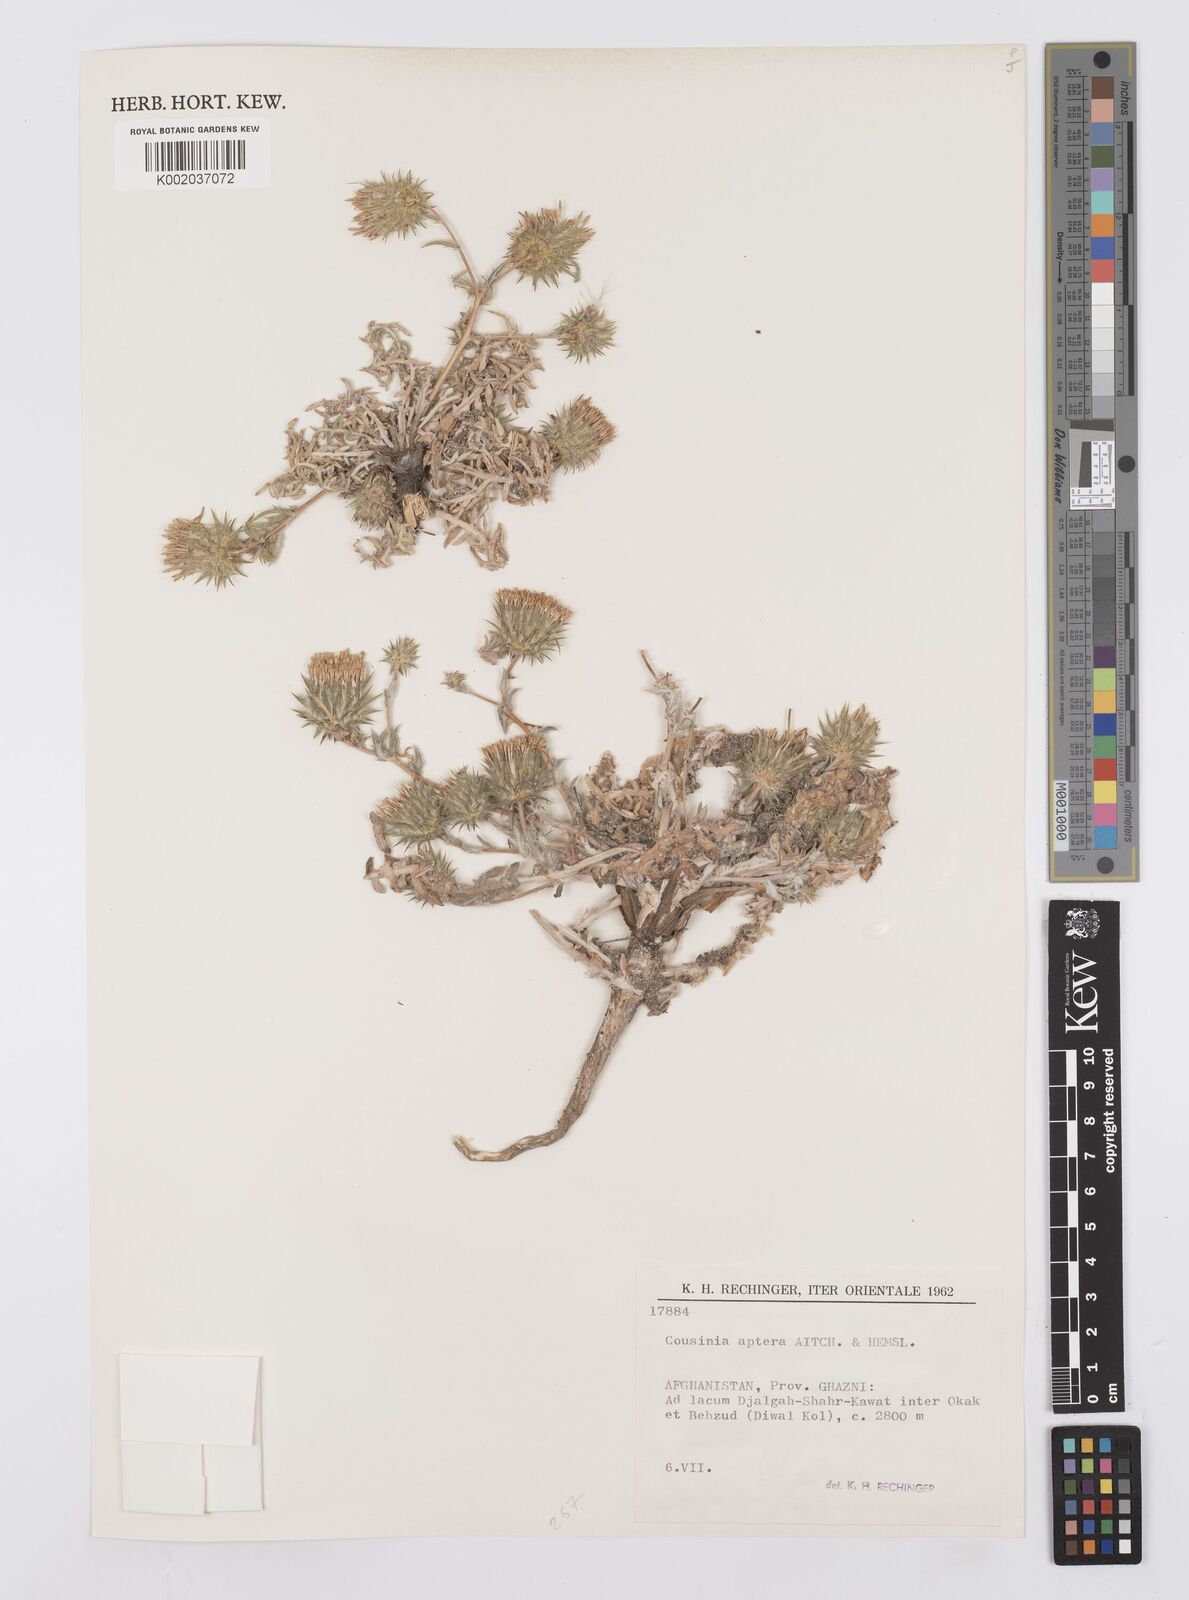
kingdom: Plantae
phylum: Tracheophyta
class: Magnoliopsida
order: Asterales
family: Asteraceae
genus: Cousinia
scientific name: Cousinia aptera
